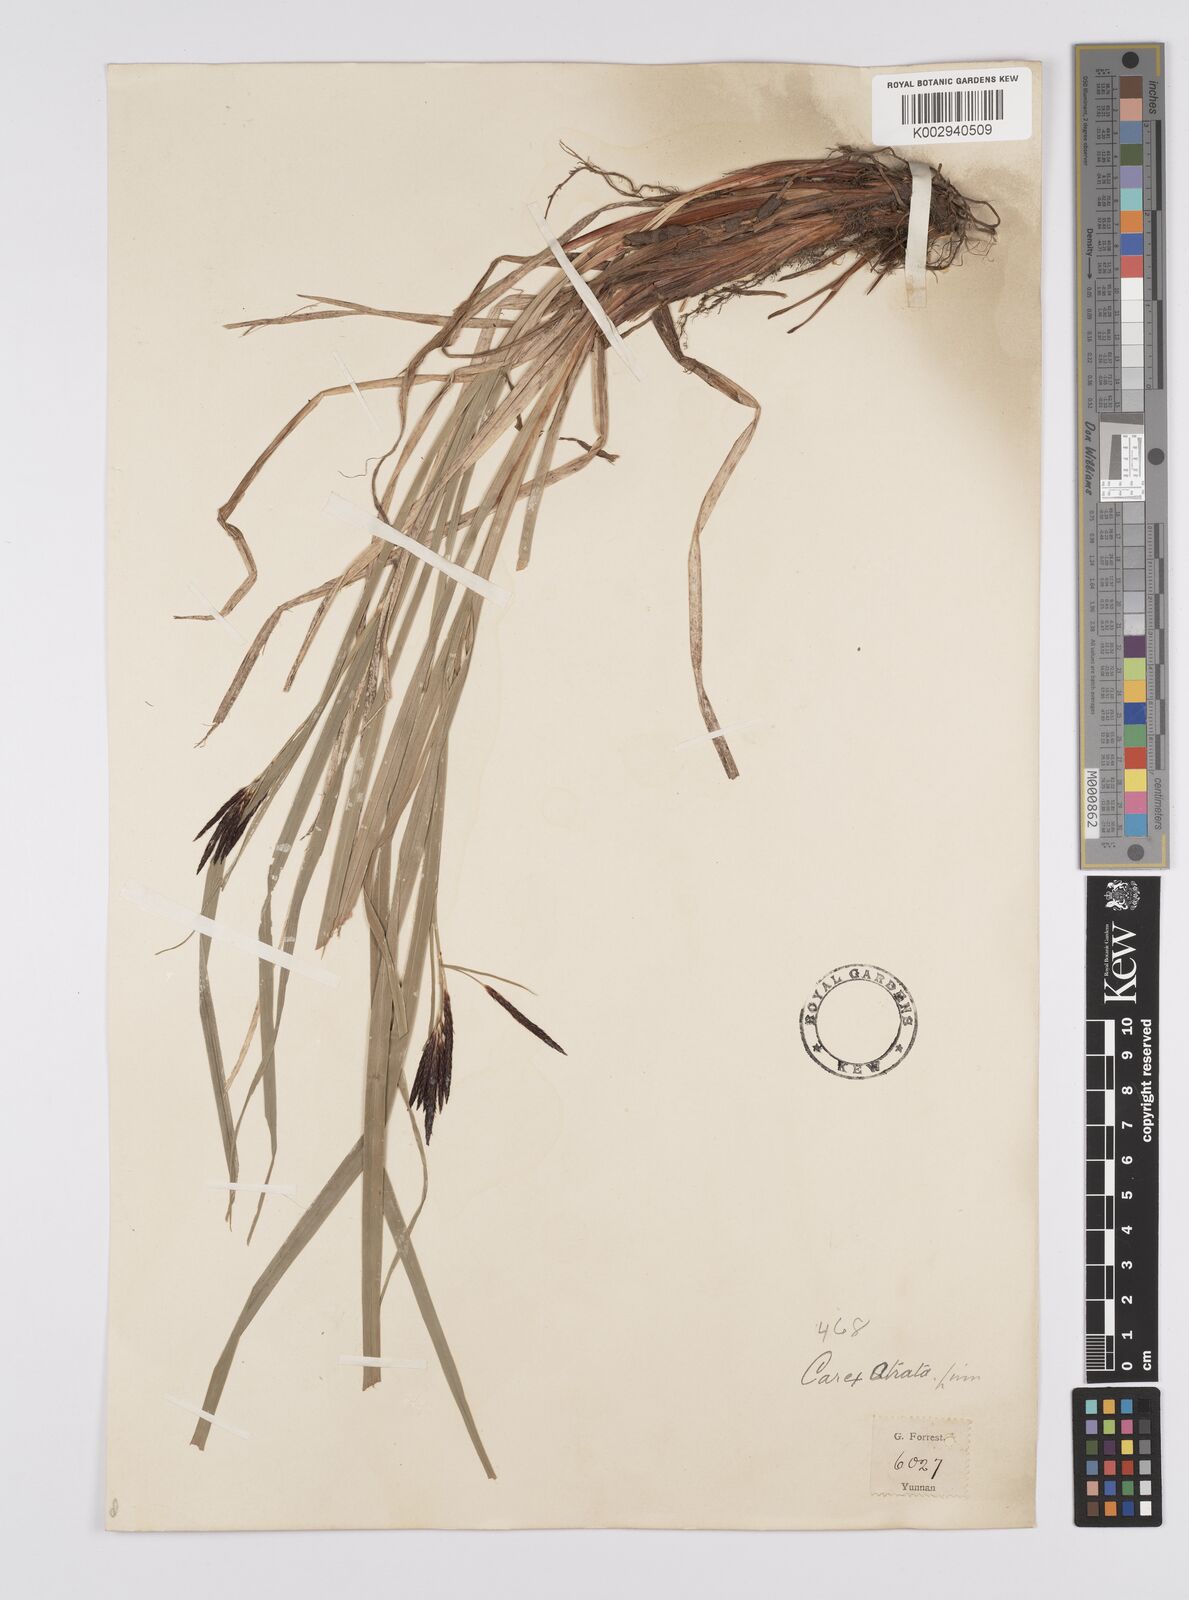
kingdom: Plantae
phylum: Tracheophyta
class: Liliopsida
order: Poales
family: Cyperaceae
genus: Carex
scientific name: Carex atrata
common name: Black alpine sedge
